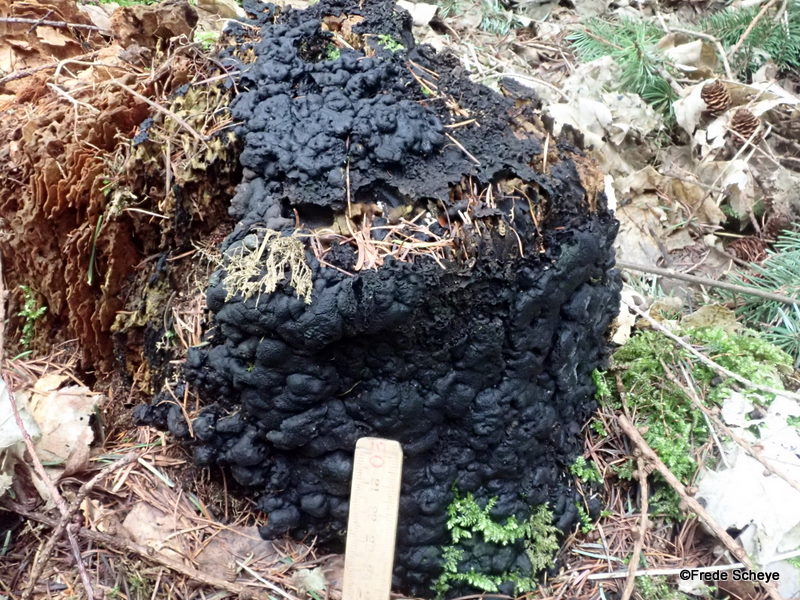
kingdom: Fungi
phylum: Ascomycota
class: Sordariomycetes
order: Xylariales
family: Xylariaceae
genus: Kretzschmaria
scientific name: Kretzschmaria deusta
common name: stor kulsvamp
